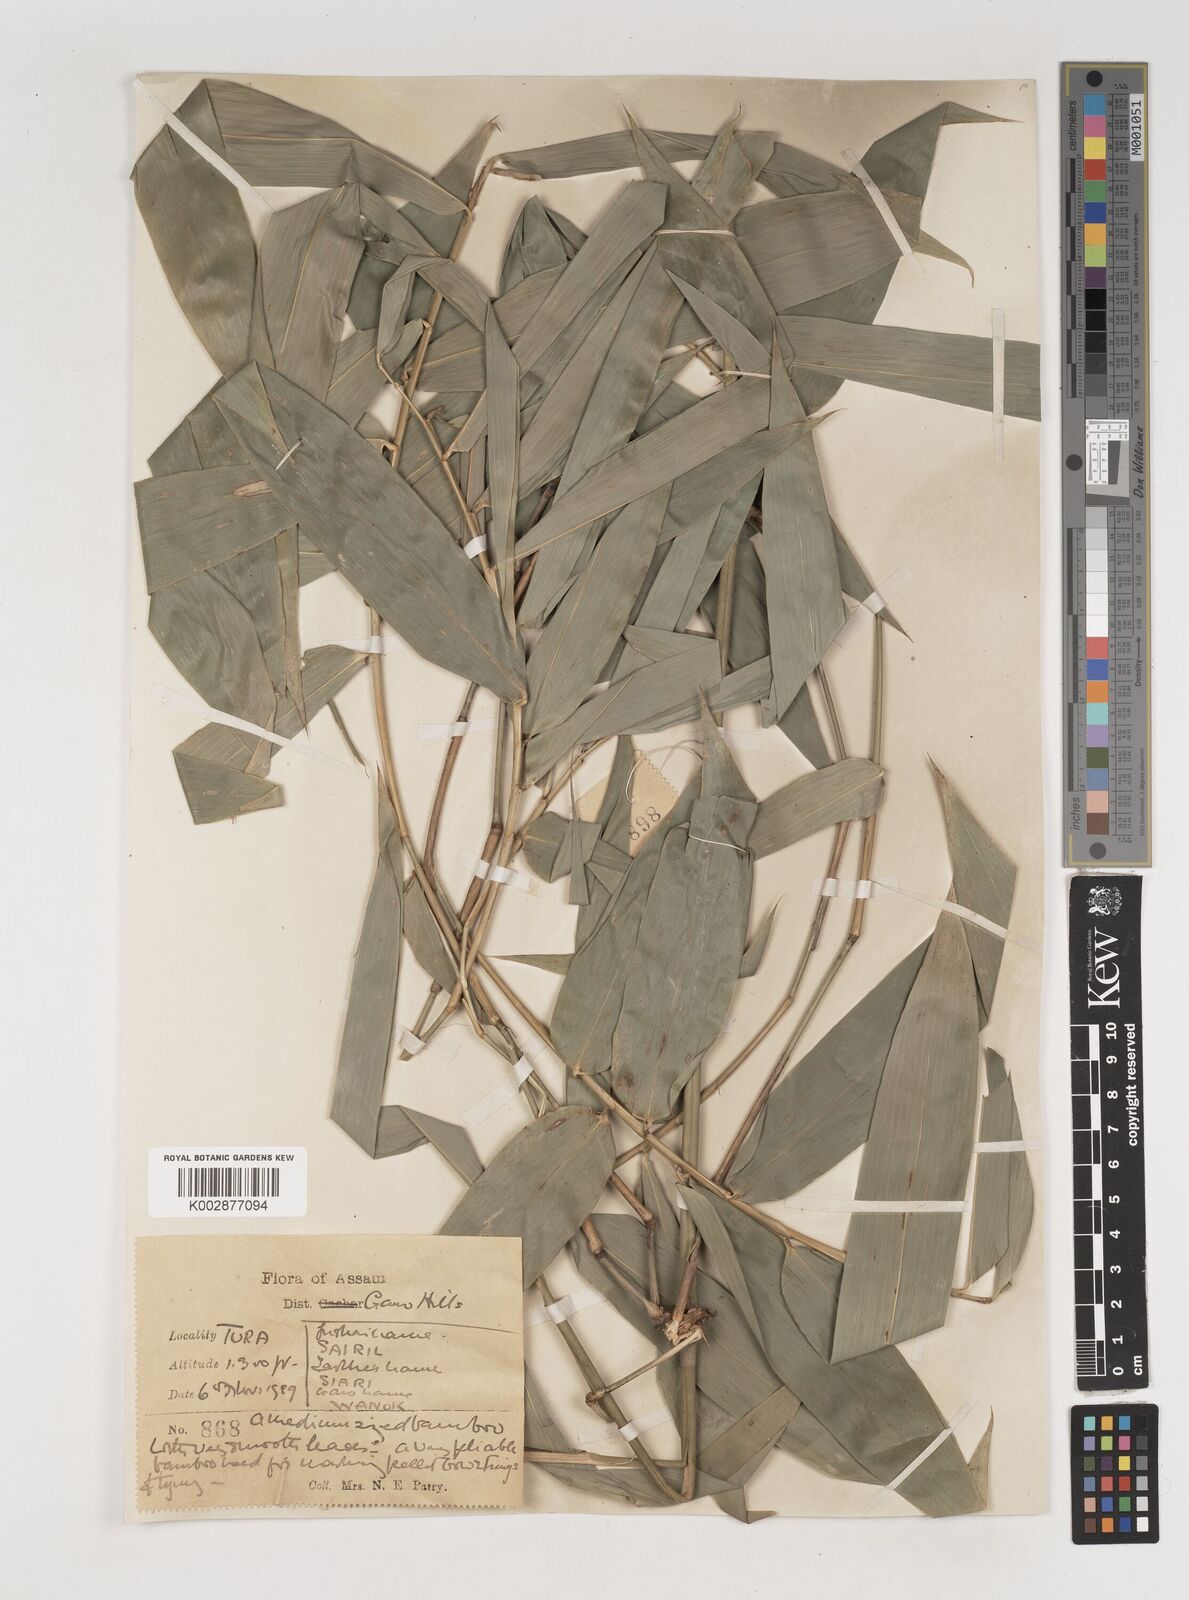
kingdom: Plantae
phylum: Tracheophyta
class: Liliopsida
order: Poales
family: Poaceae
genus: Bambusa
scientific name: Bambusa
